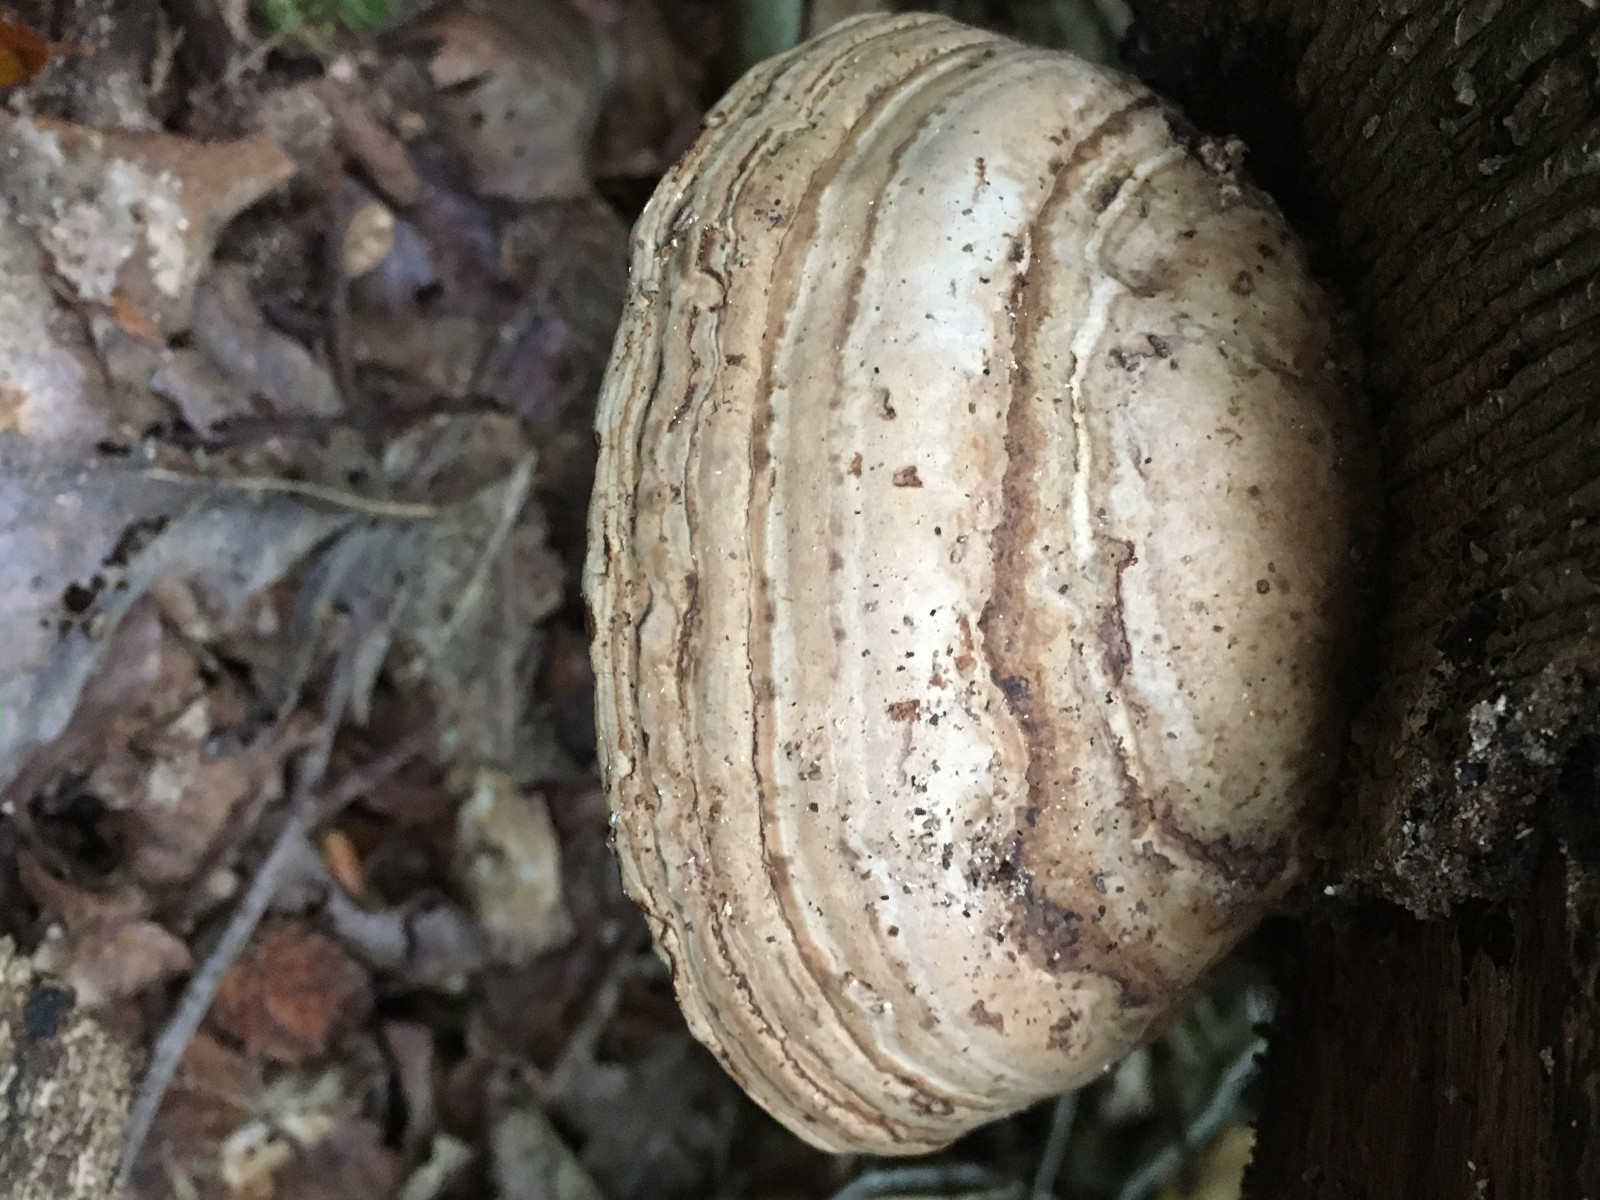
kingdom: Fungi
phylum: Basidiomycota
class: Agaricomycetes
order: Polyporales
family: Polyporaceae
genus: Fomes
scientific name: Fomes fomentarius
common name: tøndersvamp
